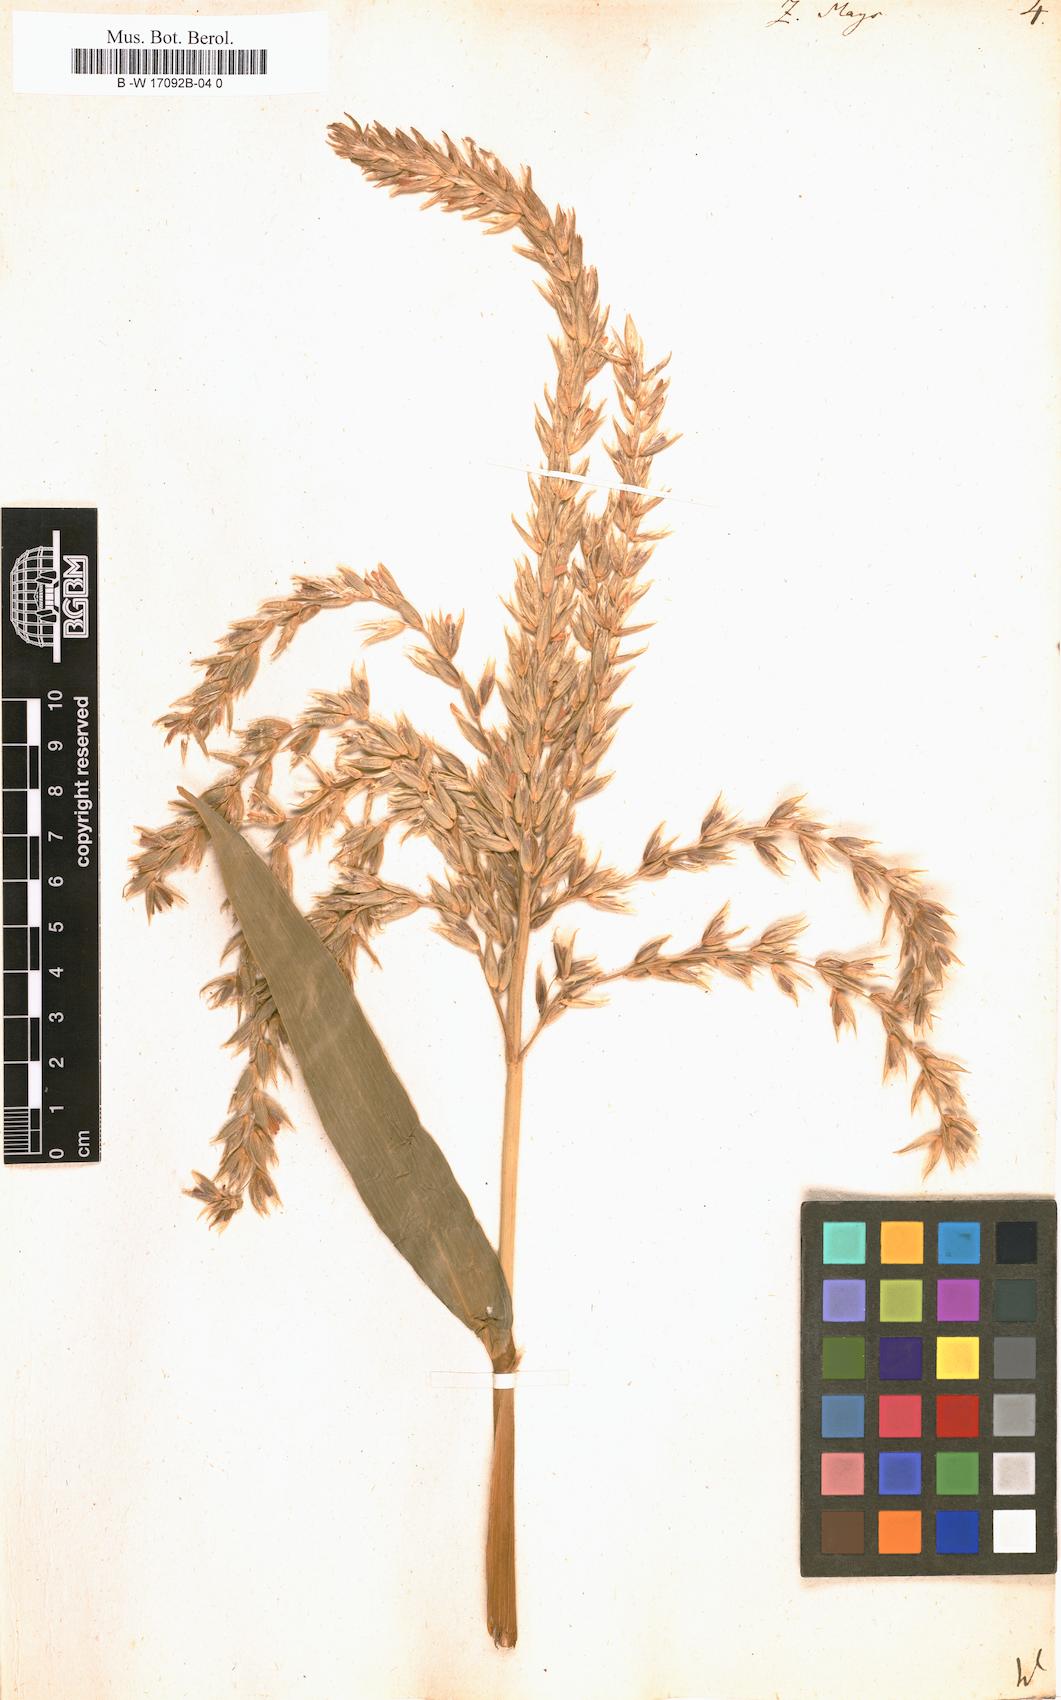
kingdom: Plantae
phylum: Tracheophyta
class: Liliopsida
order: Poales
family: Poaceae
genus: Zea
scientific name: Zea mays
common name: Maize
